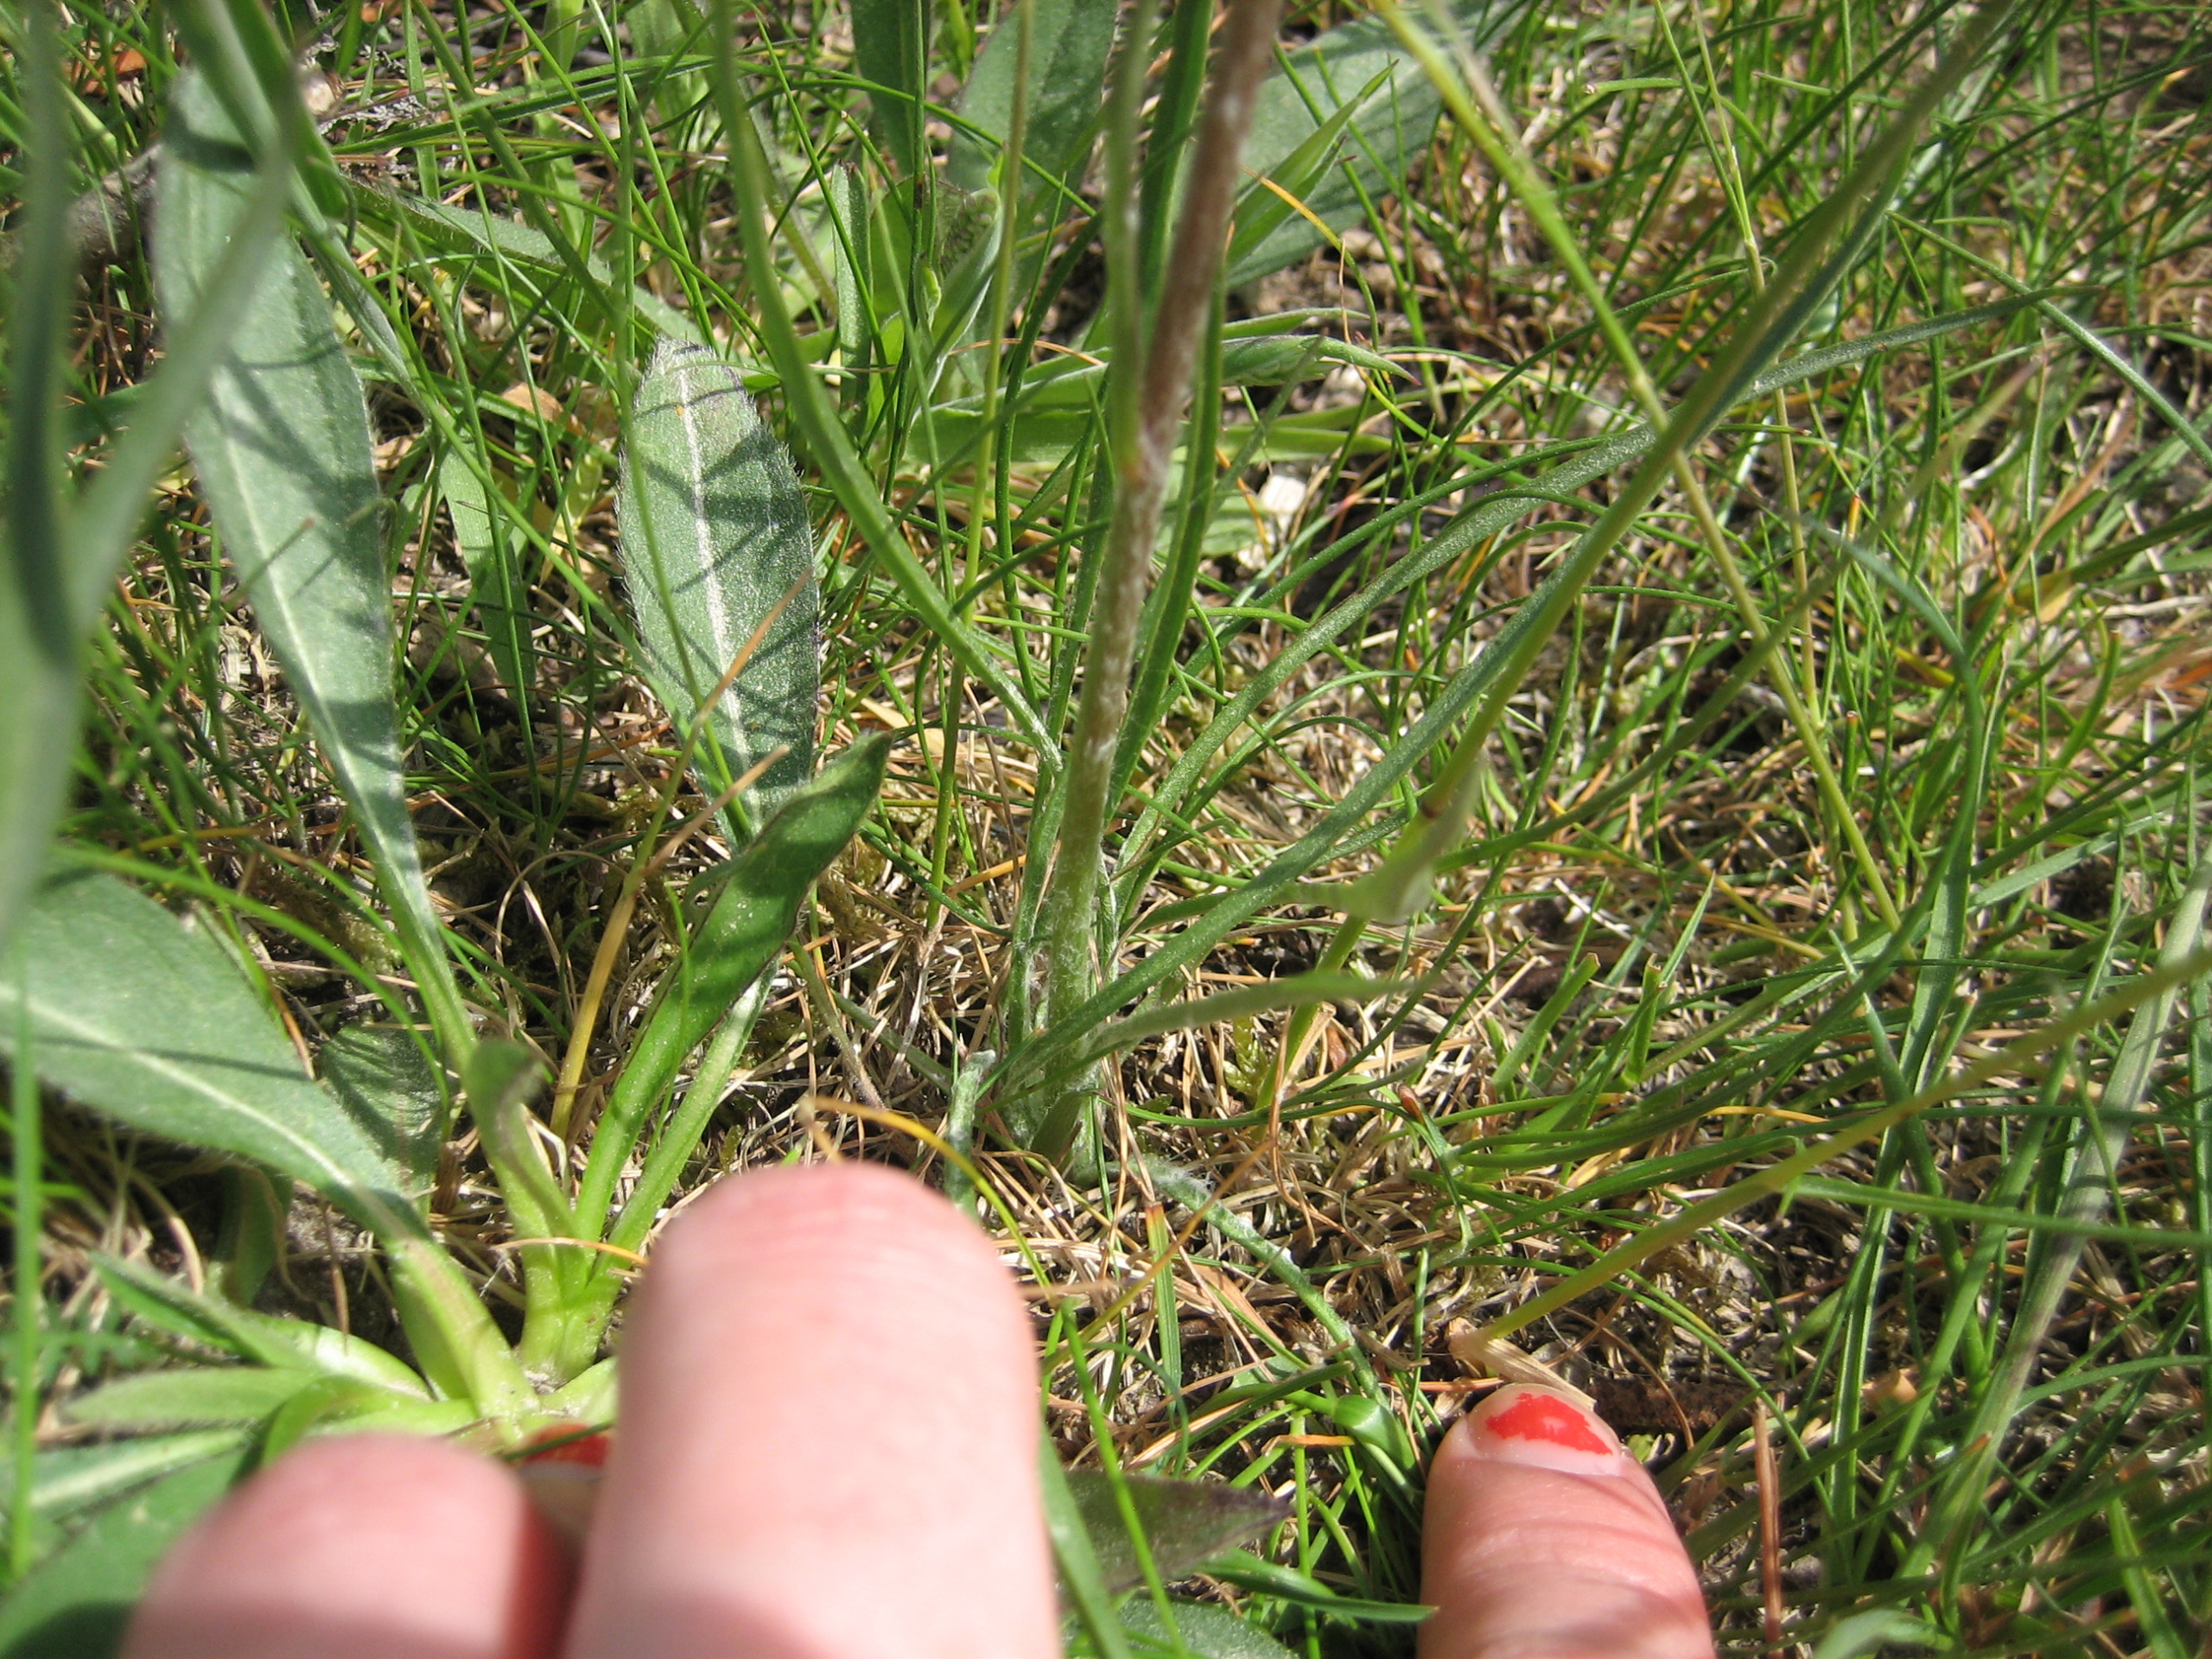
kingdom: Plantae
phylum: Tracheophyta
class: Magnoliopsida
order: Asterales
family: Asteraceae
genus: Scorzonera
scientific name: Scorzonera humilis
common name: Lav skorsoner
